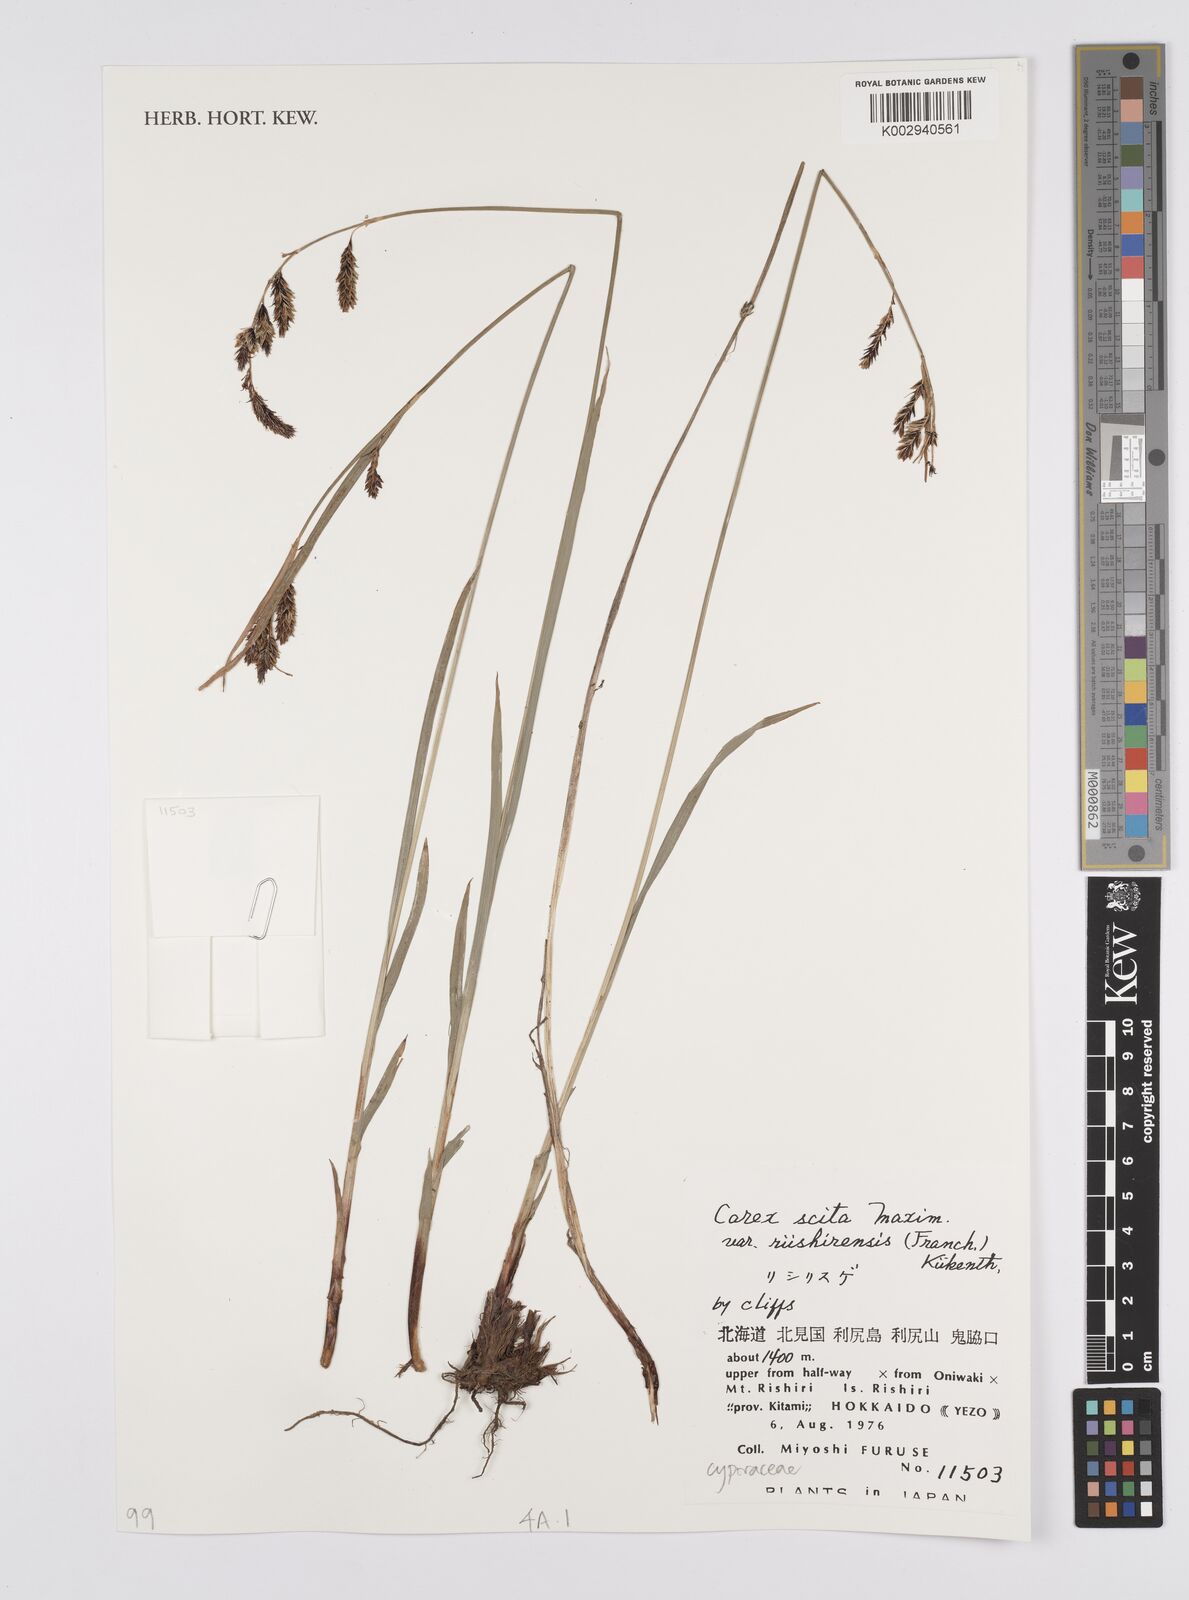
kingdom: Plantae
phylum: Tracheophyta
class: Liliopsida
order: Poales
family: Cyperaceae
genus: Carex
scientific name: Carex scita
